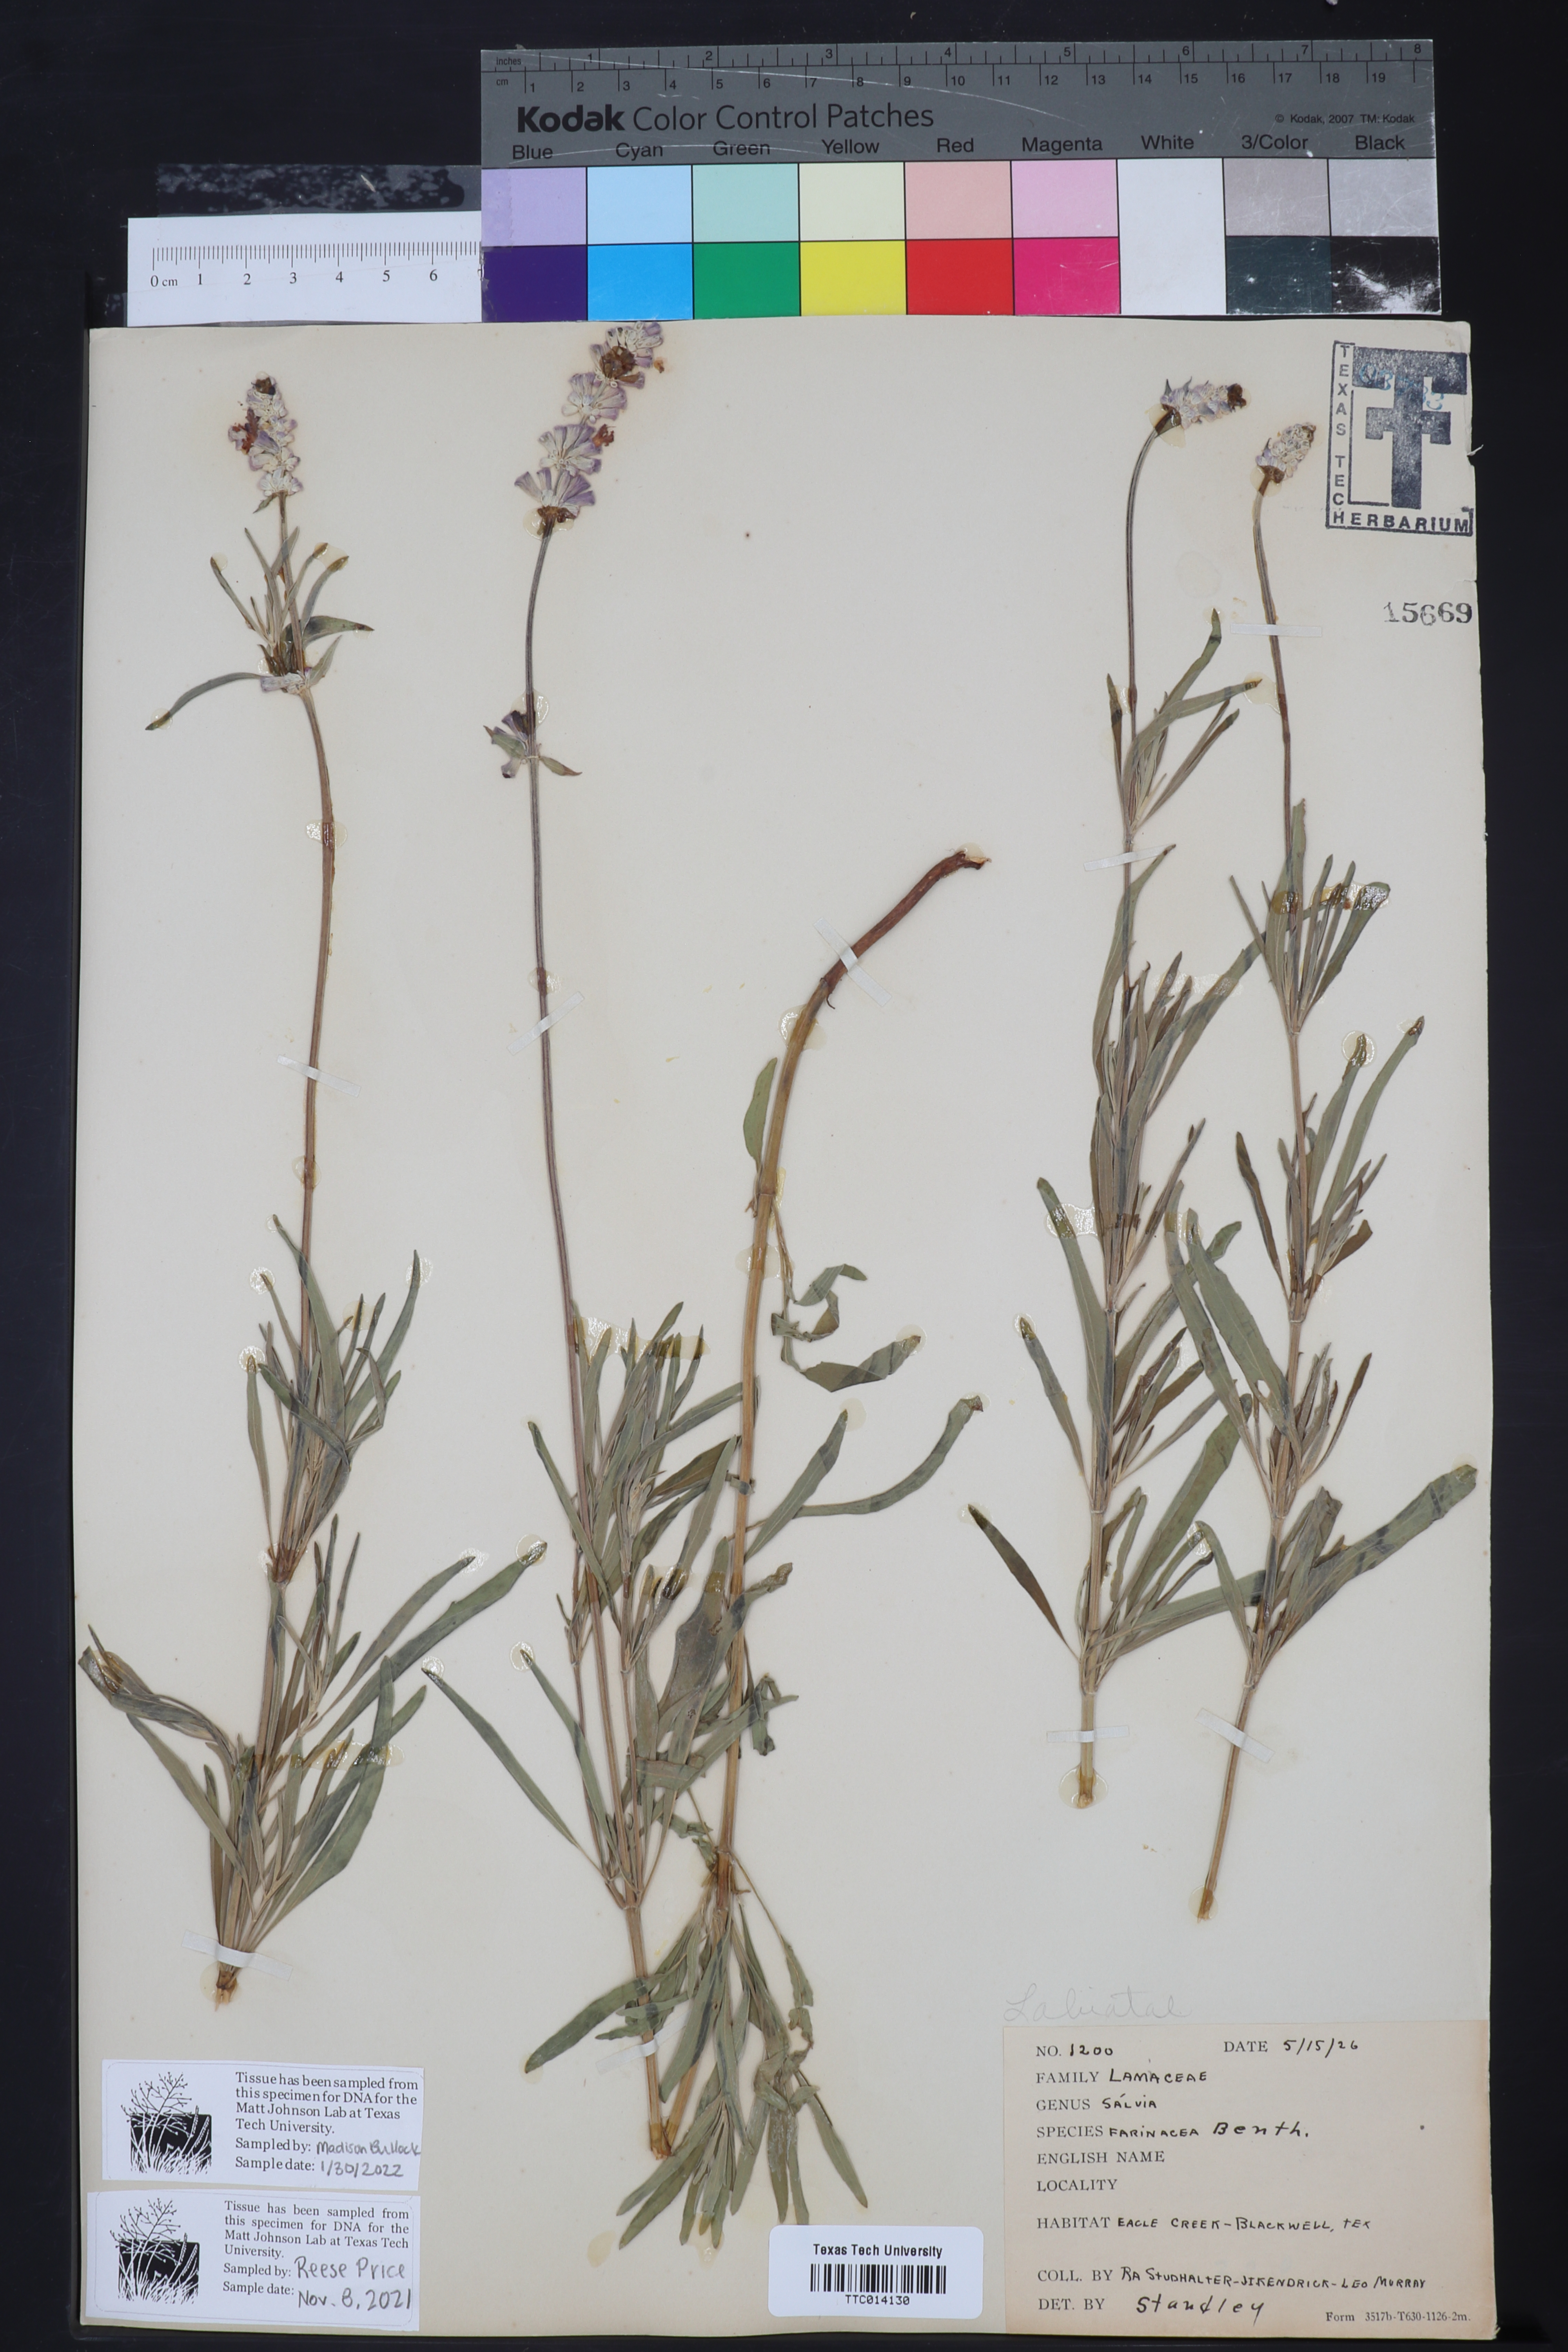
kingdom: Plantae
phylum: Tracheophyta
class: Magnoliopsida
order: Lamiales
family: Lamiaceae
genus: Salvia
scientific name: Salvia farinacea
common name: Mealy sage
